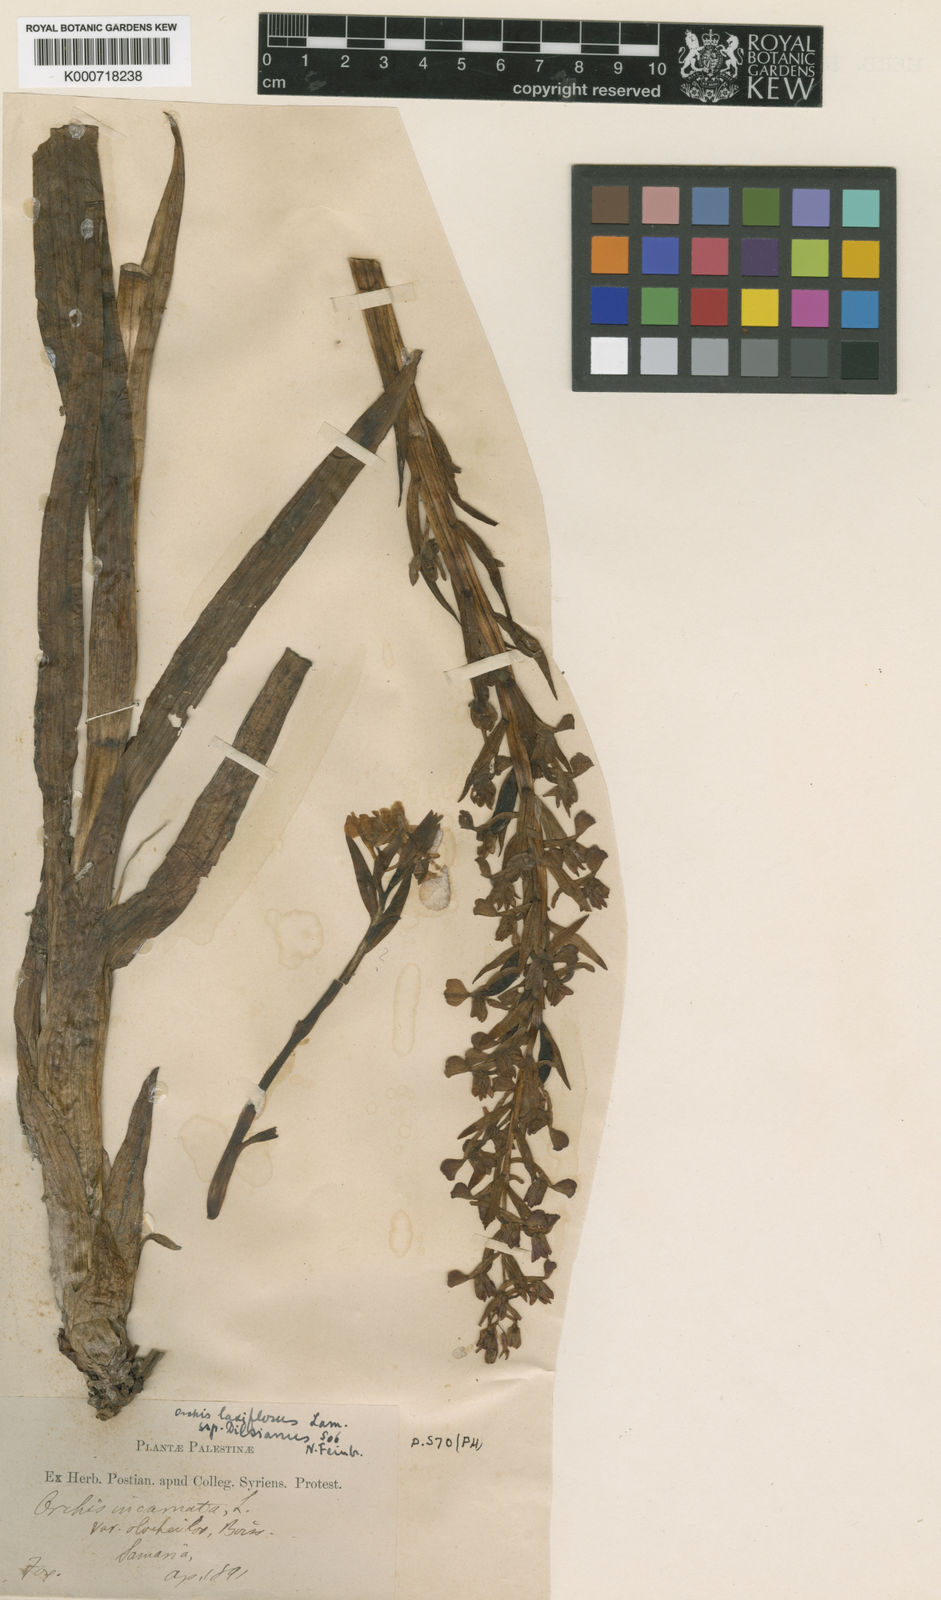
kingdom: Plantae
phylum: Tracheophyta
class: Liliopsida
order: Asparagales
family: Orchidaceae
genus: Anacamptis
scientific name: Anacamptis palustris
